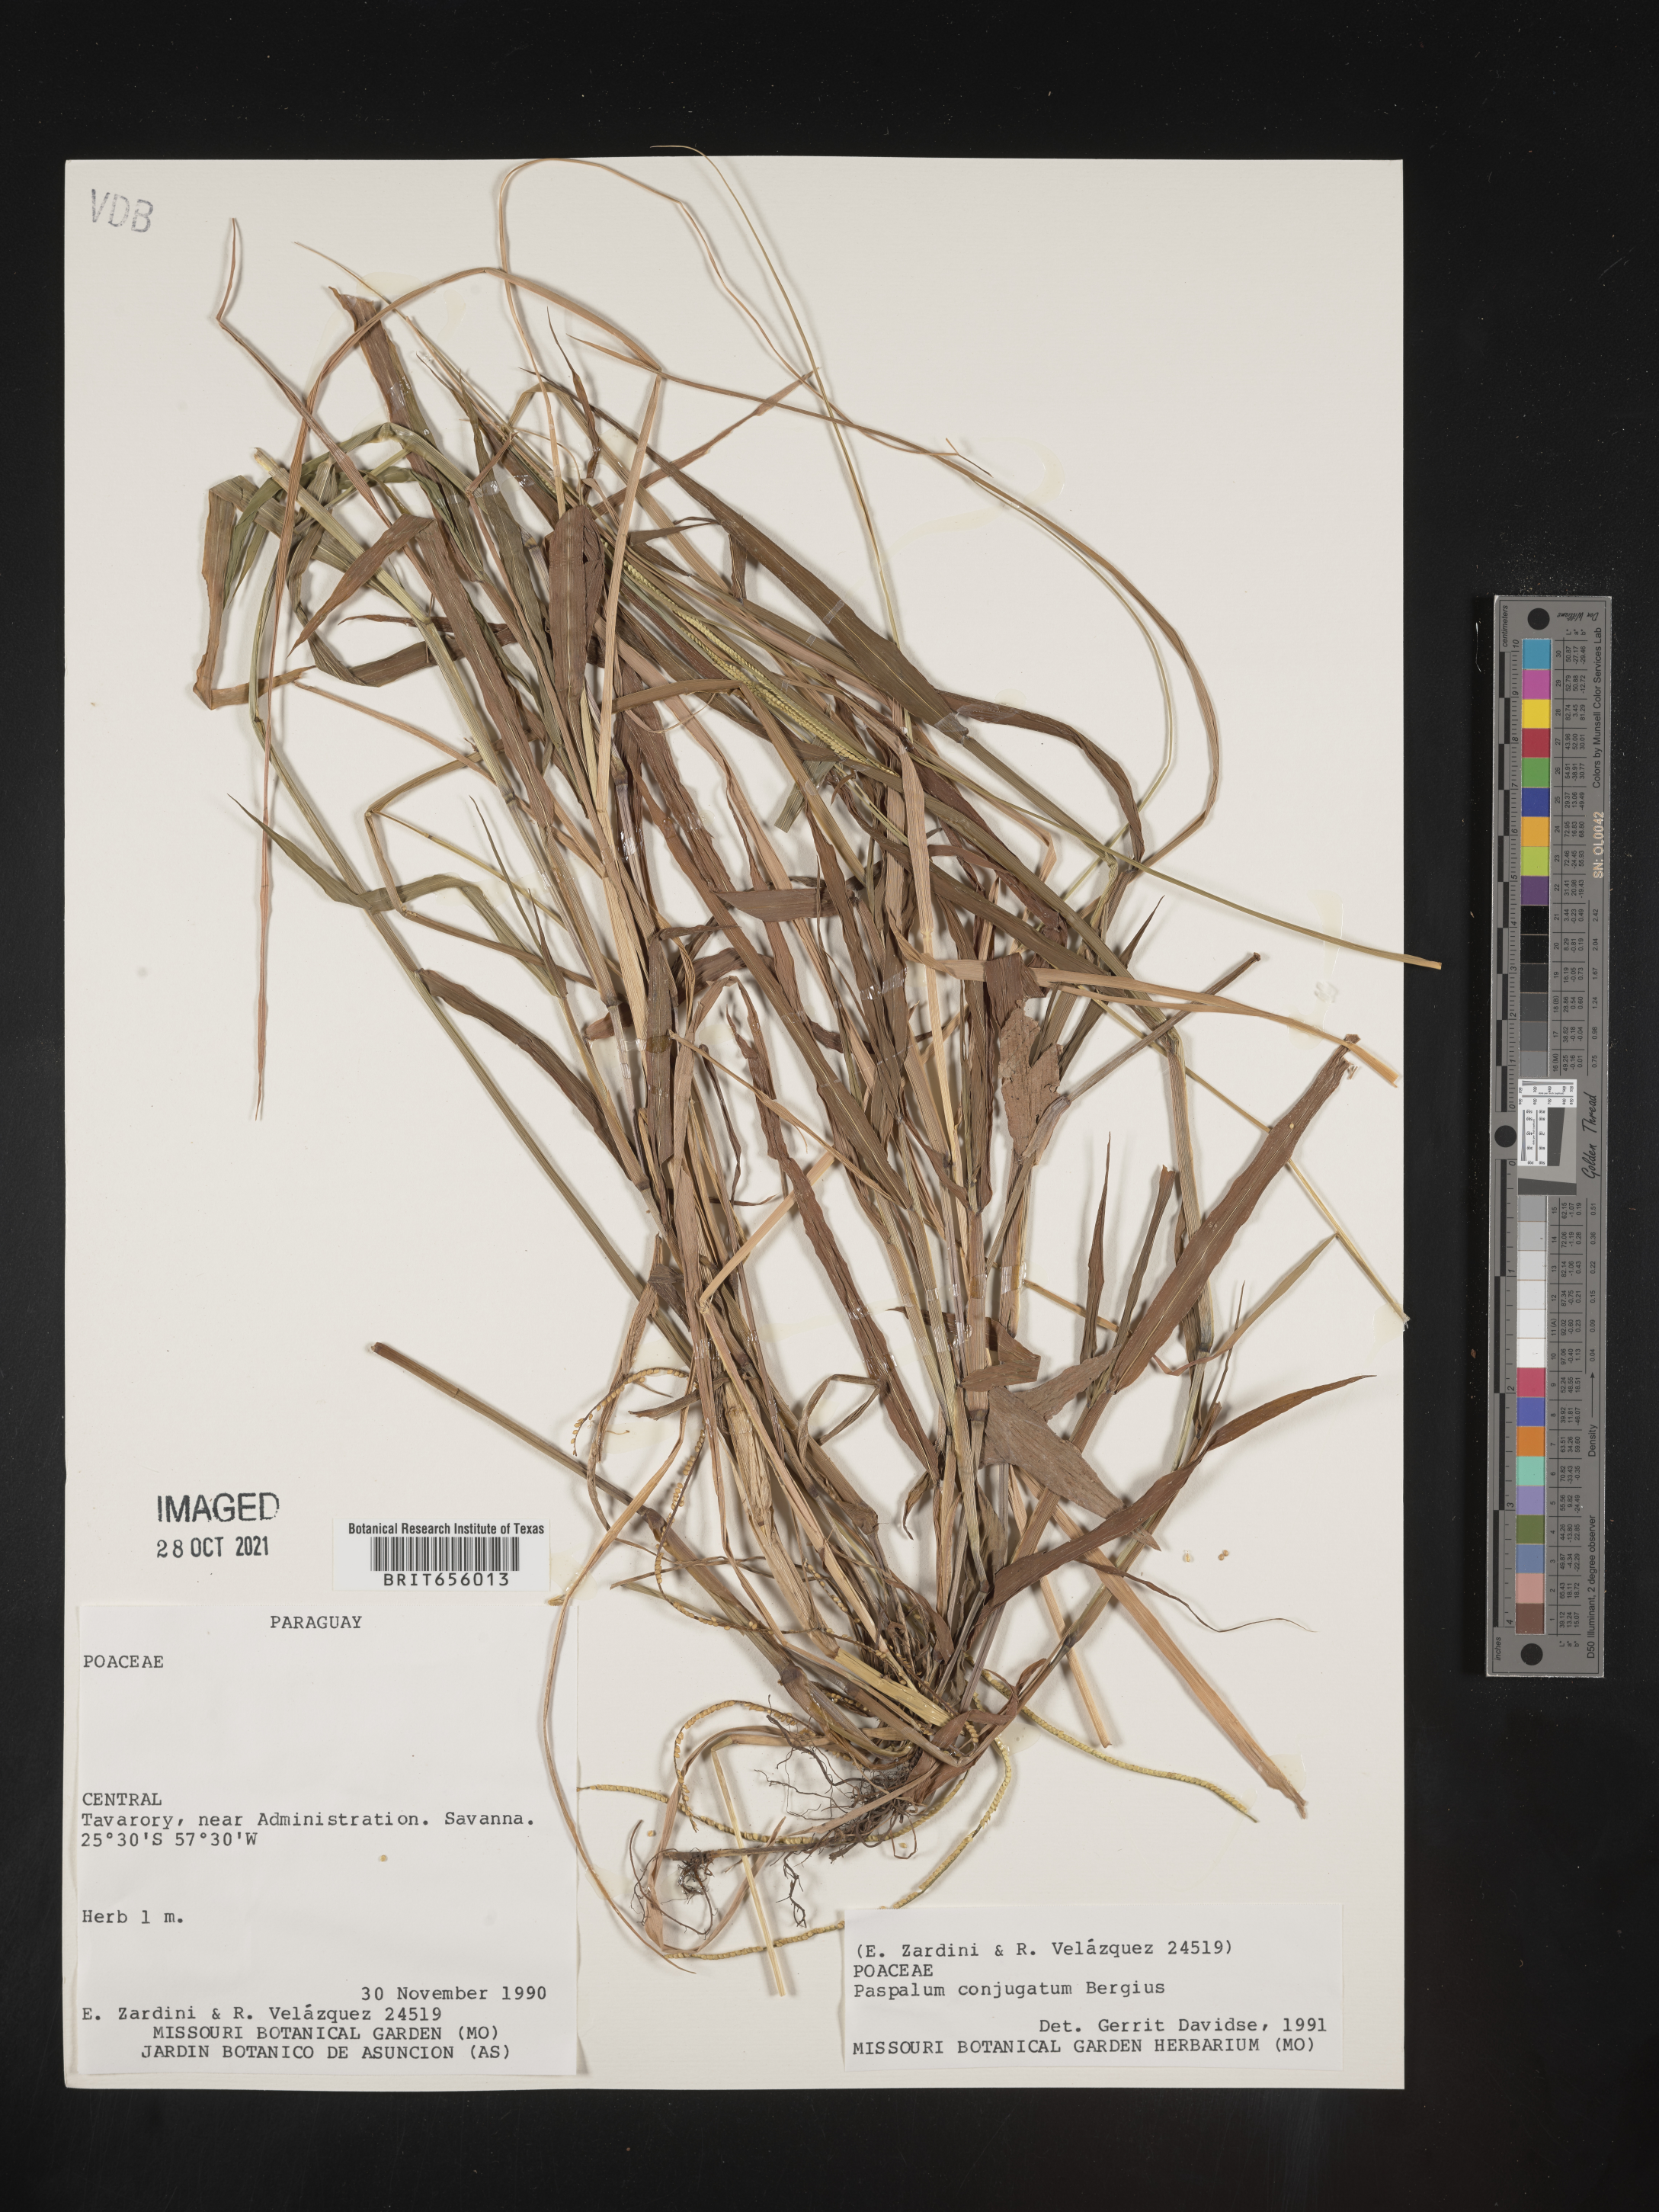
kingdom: Plantae
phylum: Tracheophyta
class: Liliopsida
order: Poales
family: Poaceae
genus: Paspalum
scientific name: Paspalum
